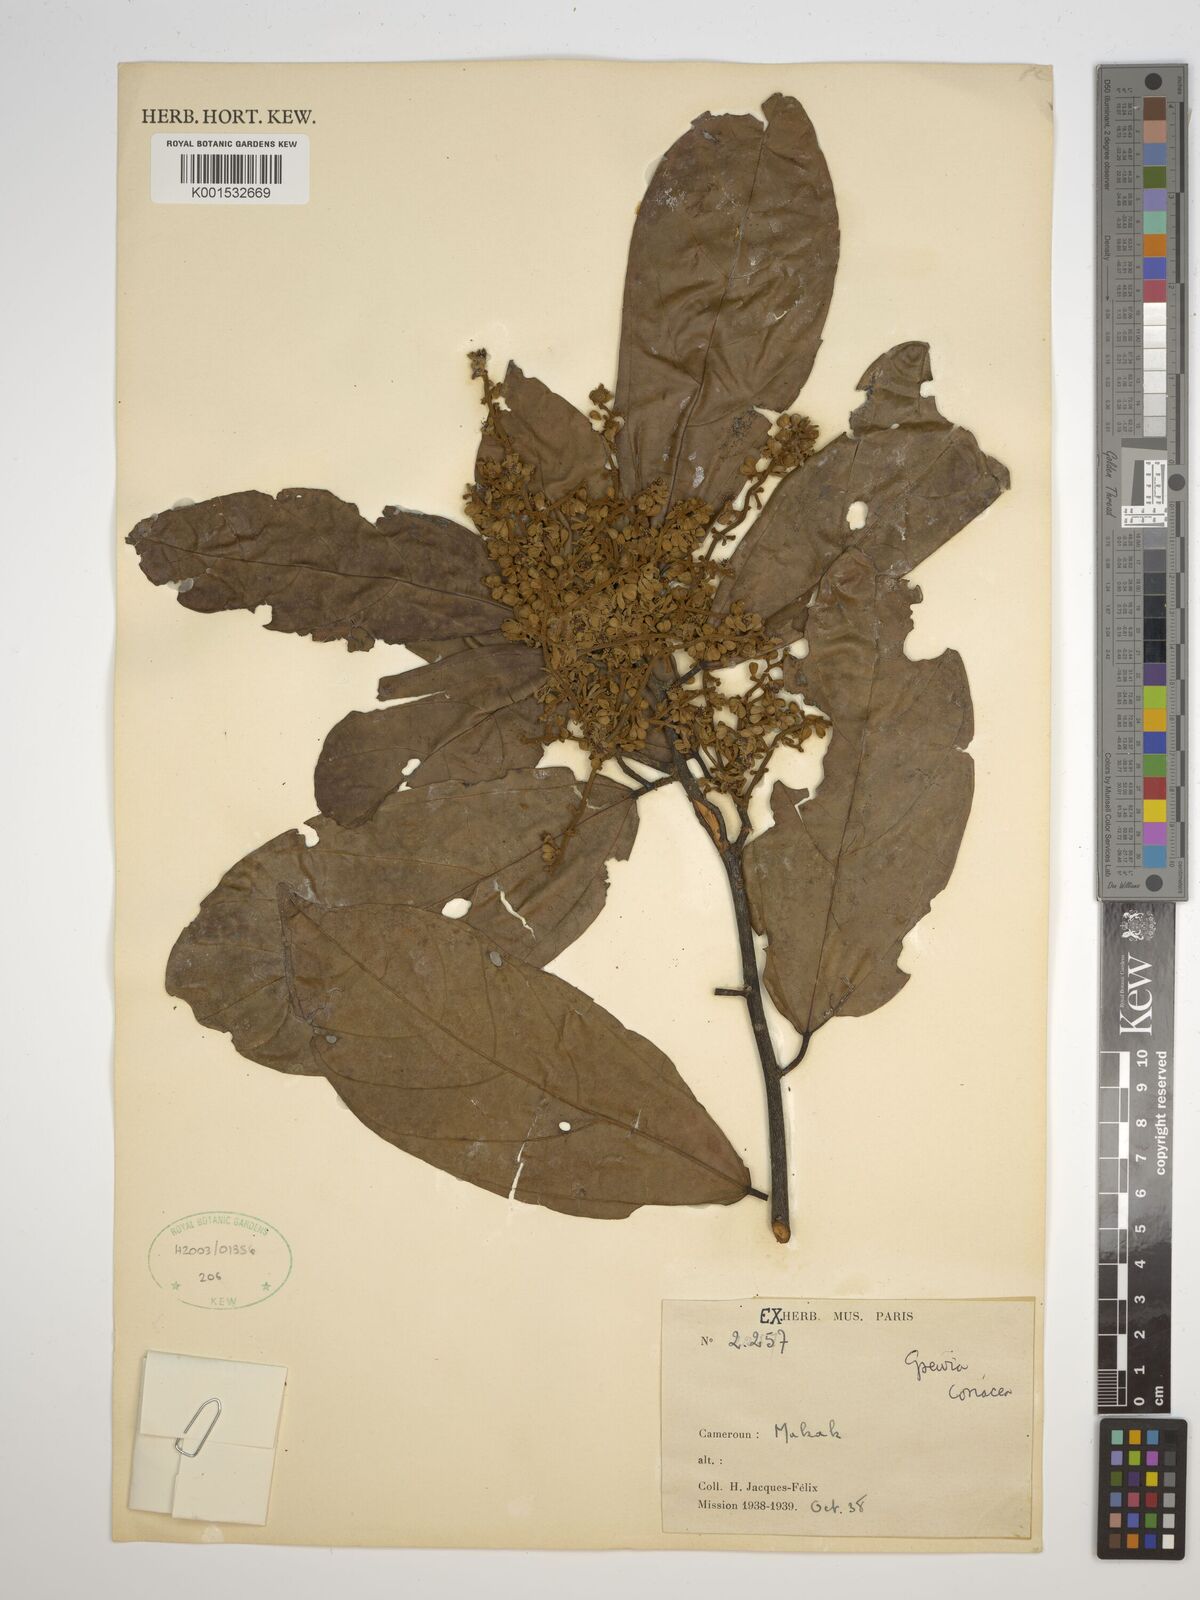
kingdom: Plantae
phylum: Tracheophyta
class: Magnoliopsida
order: Malvales
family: Malvaceae
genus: Microcos
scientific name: Microcos coriacea
